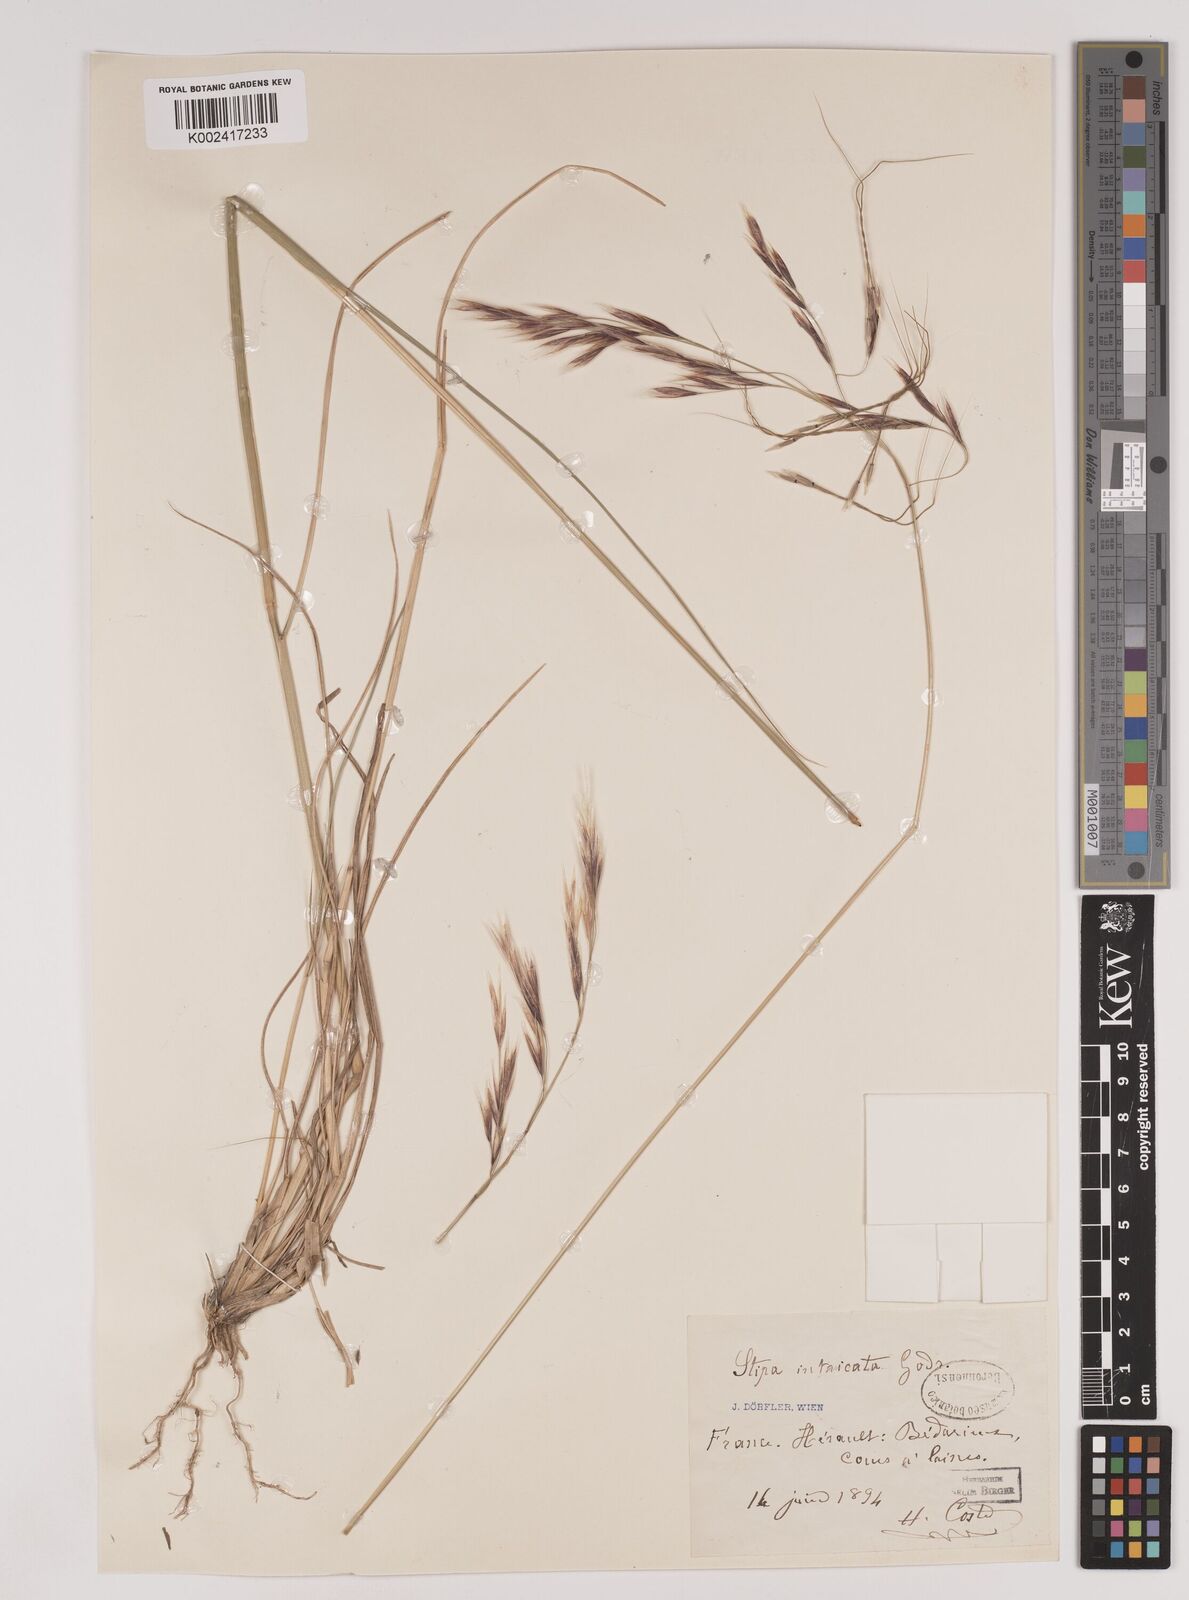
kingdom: Plantae
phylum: Tracheophyta
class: Liliopsida
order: Poales
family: Poaceae
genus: Nassella
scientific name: Nassella neesiana
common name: American needle-grass
